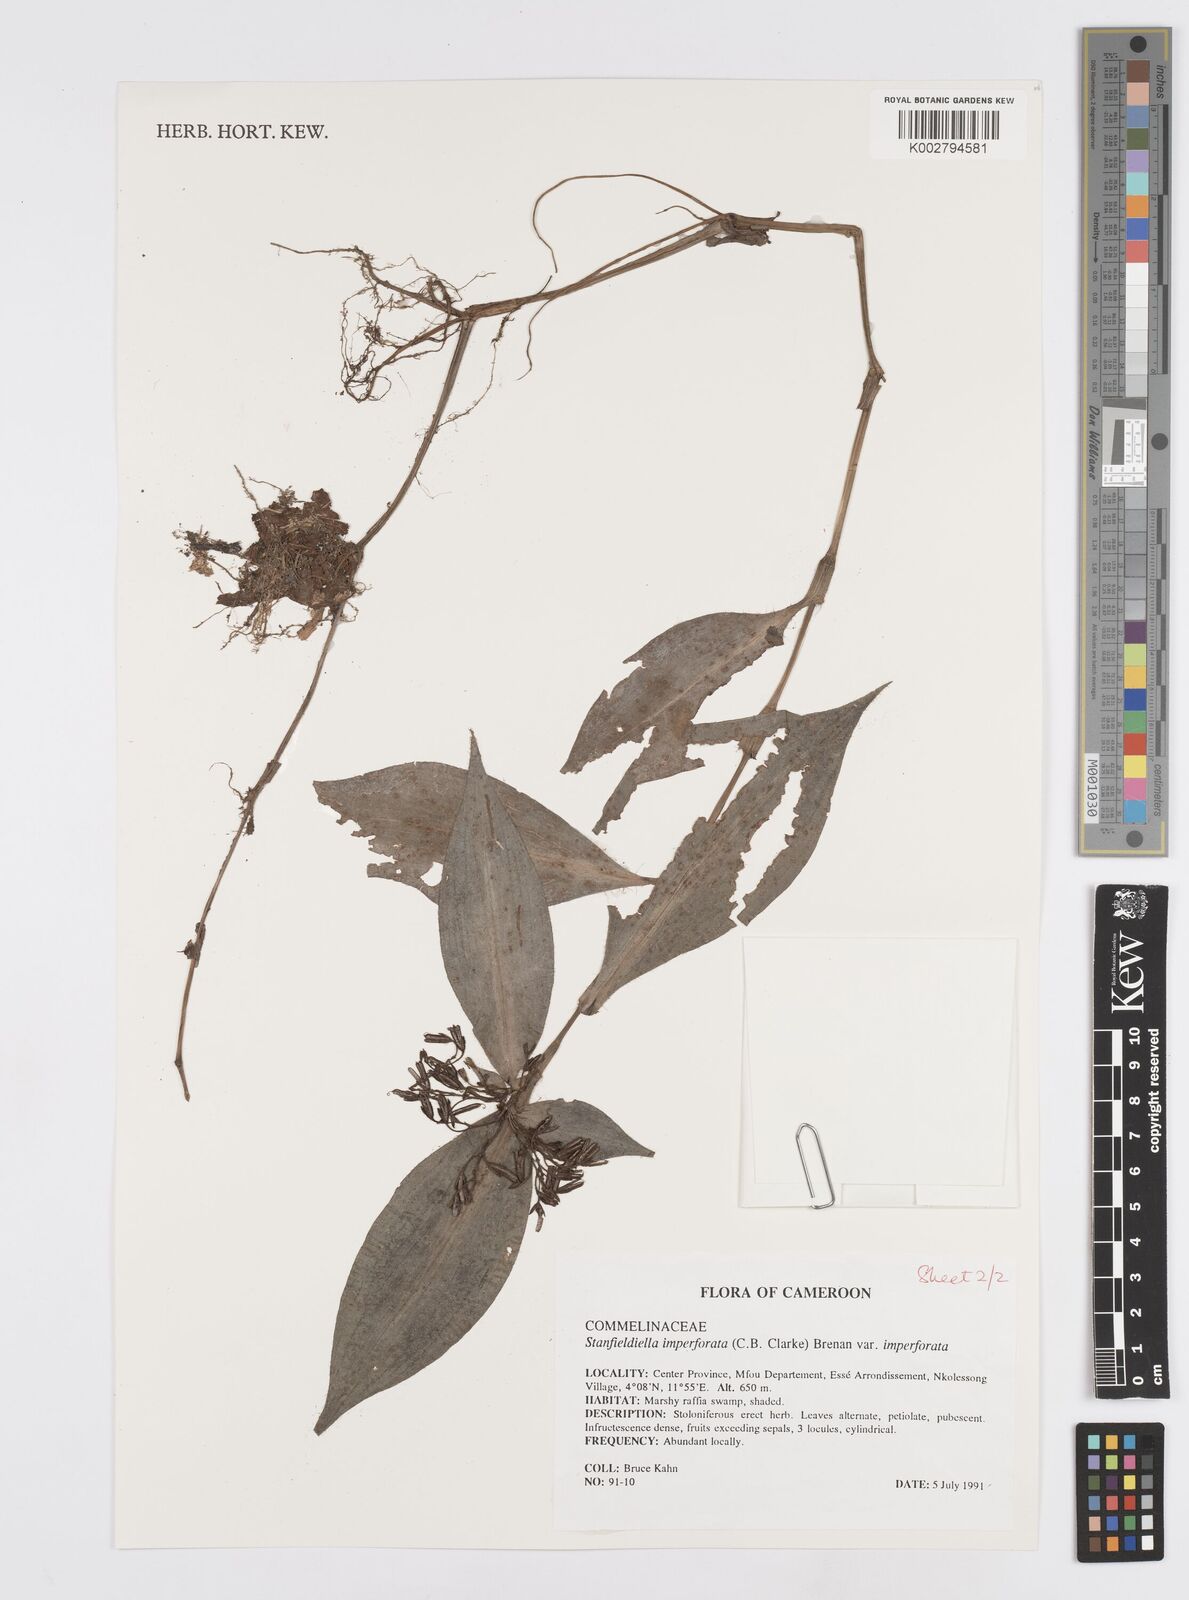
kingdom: Plantae
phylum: Tracheophyta
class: Liliopsida
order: Commelinales
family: Commelinaceae
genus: Stanfieldiella
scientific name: Stanfieldiella imperforata
